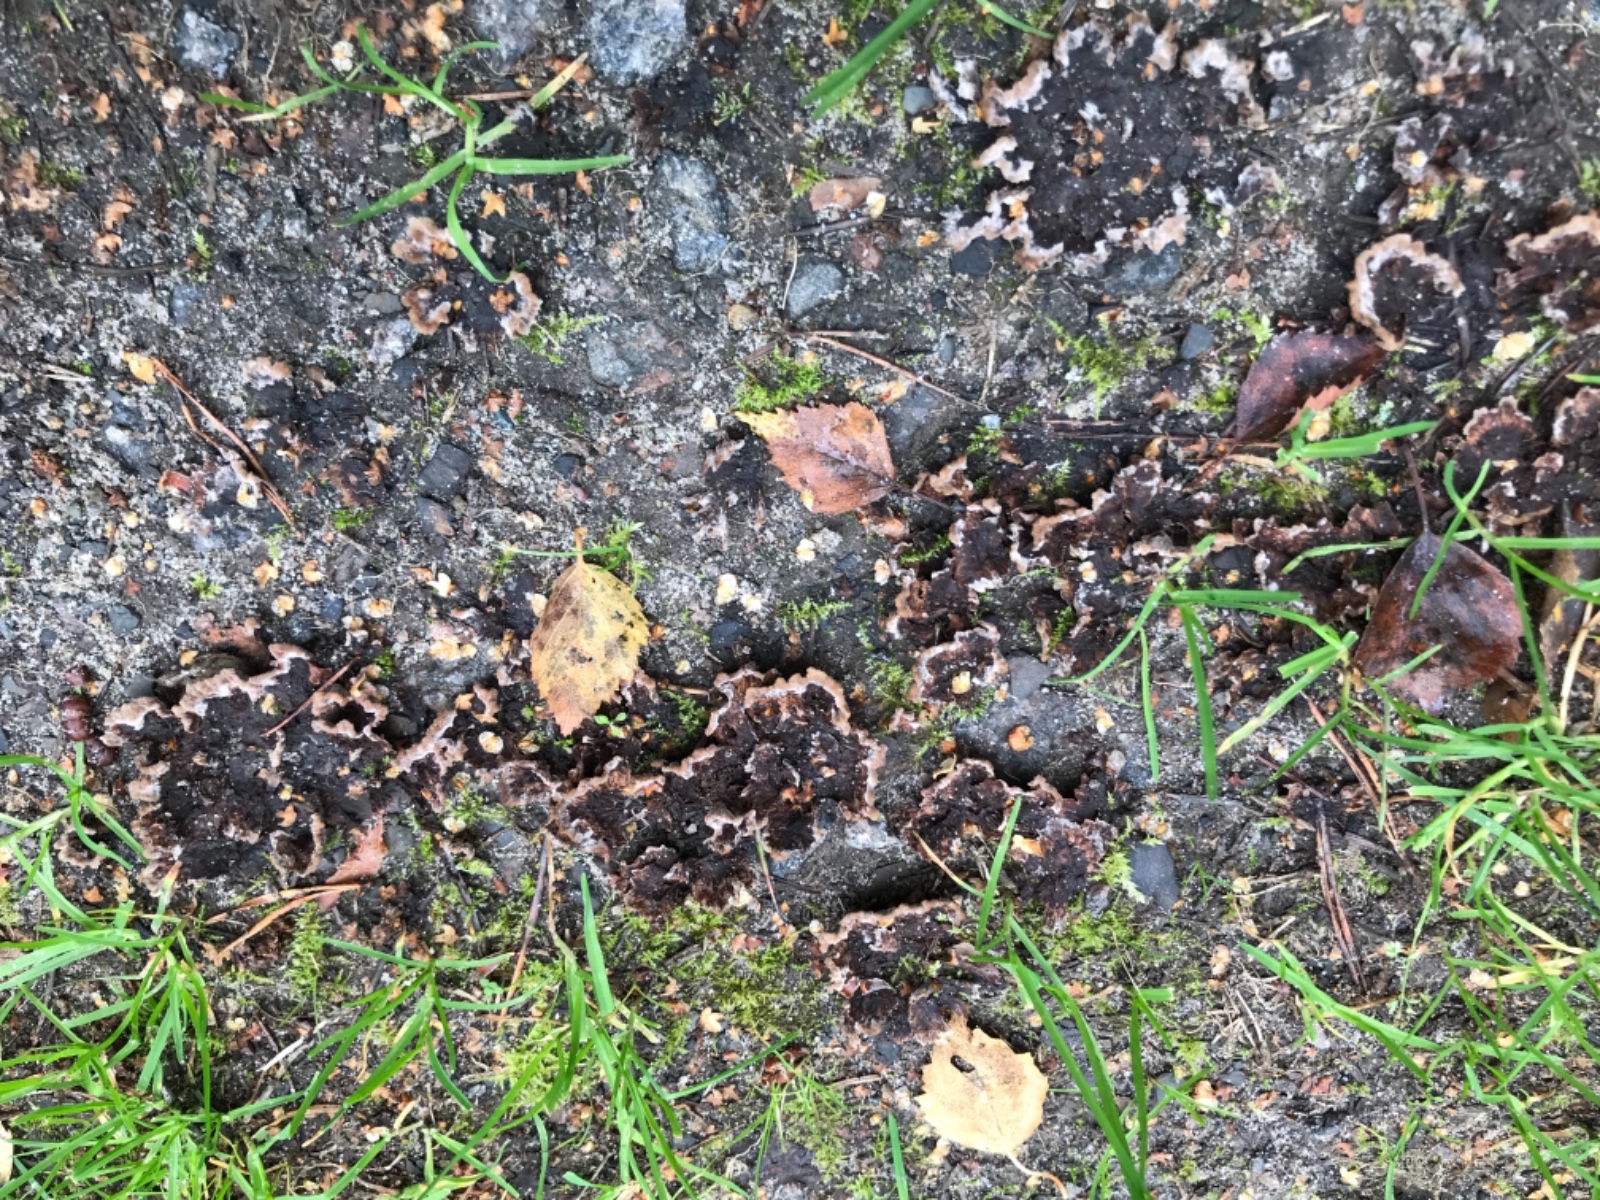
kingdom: Fungi
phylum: Basidiomycota
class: Agaricomycetes
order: Thelephorales
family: Thelephoraceae
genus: Thelephora
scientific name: Thelephora terrestris
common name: fliget frynsesvamp
